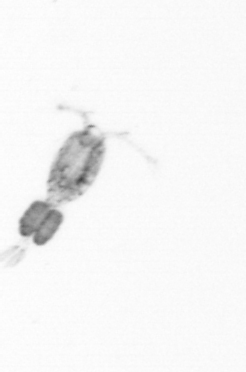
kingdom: Animalia
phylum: Arthropoda
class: Copepoda
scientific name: Copepoda
